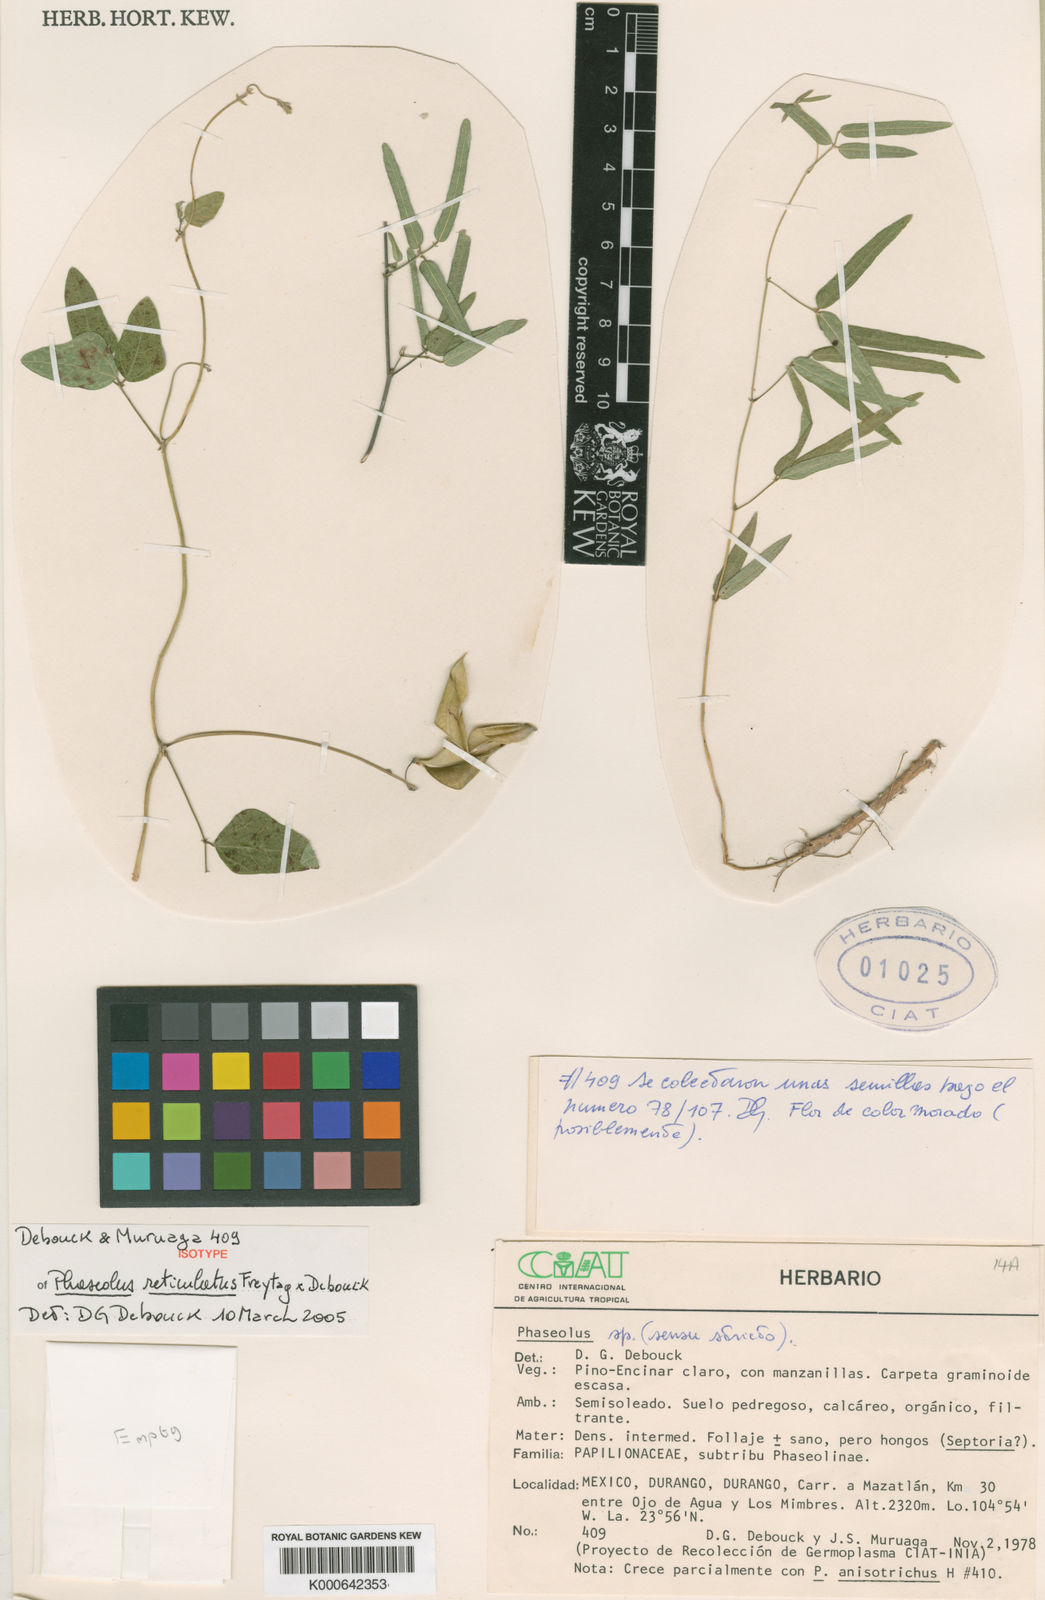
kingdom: Plantae
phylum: Tracheophyta
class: Magnoliopsida
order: Fabales
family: Fabaceae
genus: Phaseolus
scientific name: Phaseolus reticulatus
